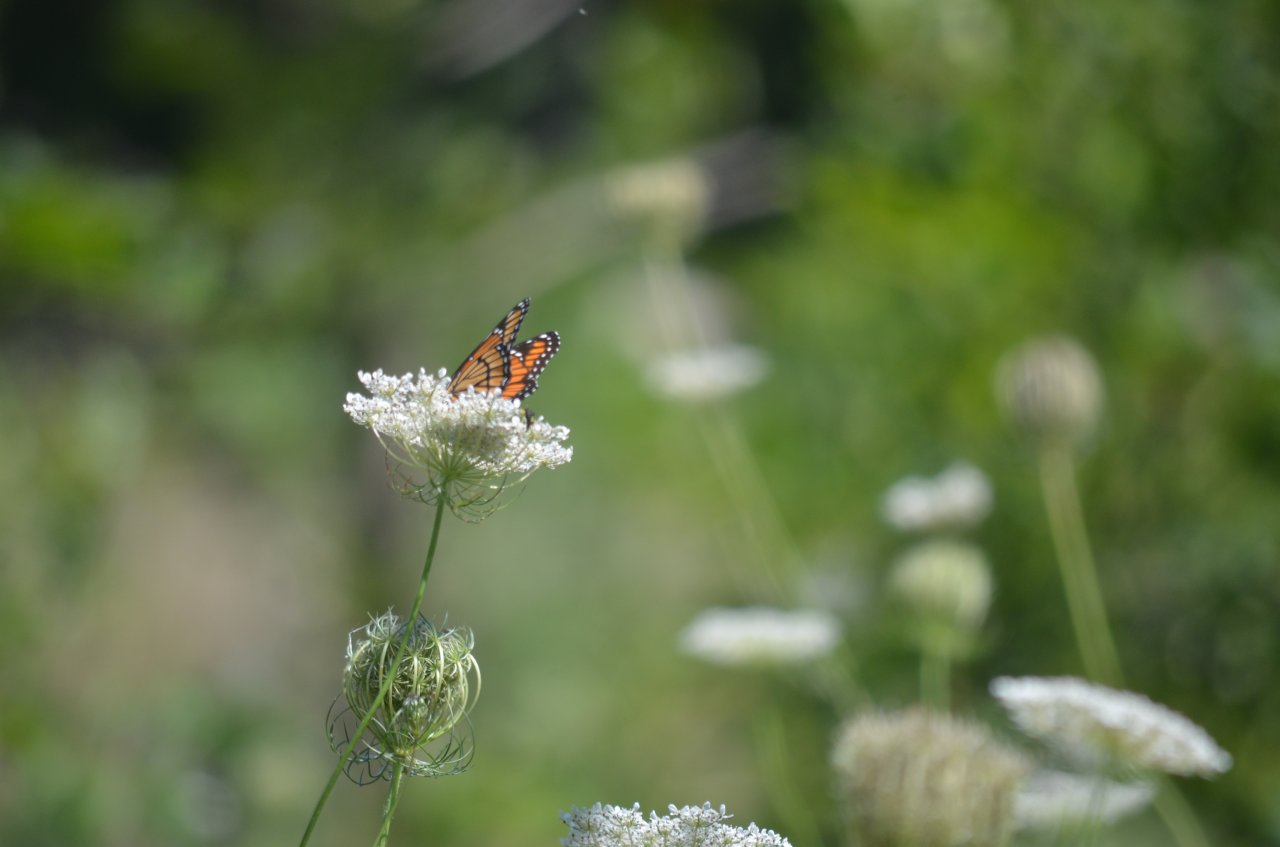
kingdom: Animalia
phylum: Arthropoda
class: Insecta
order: Lepidoptera
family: Nymphalidae
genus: Limenitis
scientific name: Limenitis archippus
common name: Viceroy
